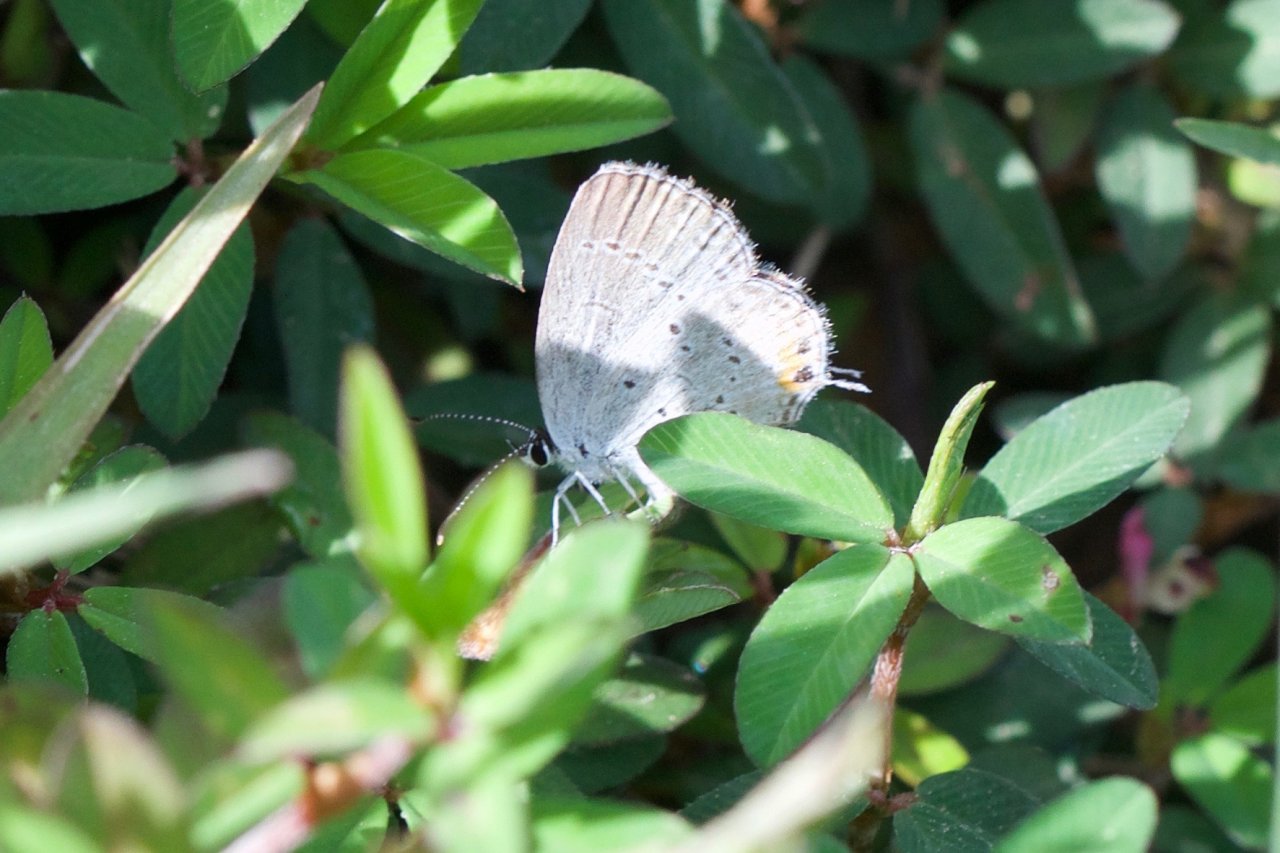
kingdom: Animalia
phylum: Arthropoda
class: Insecta
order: Lepidoptera
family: Lycaenidae
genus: Elkalyce
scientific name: Elkalyce comyntas
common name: Eastern Tailed-Blue
